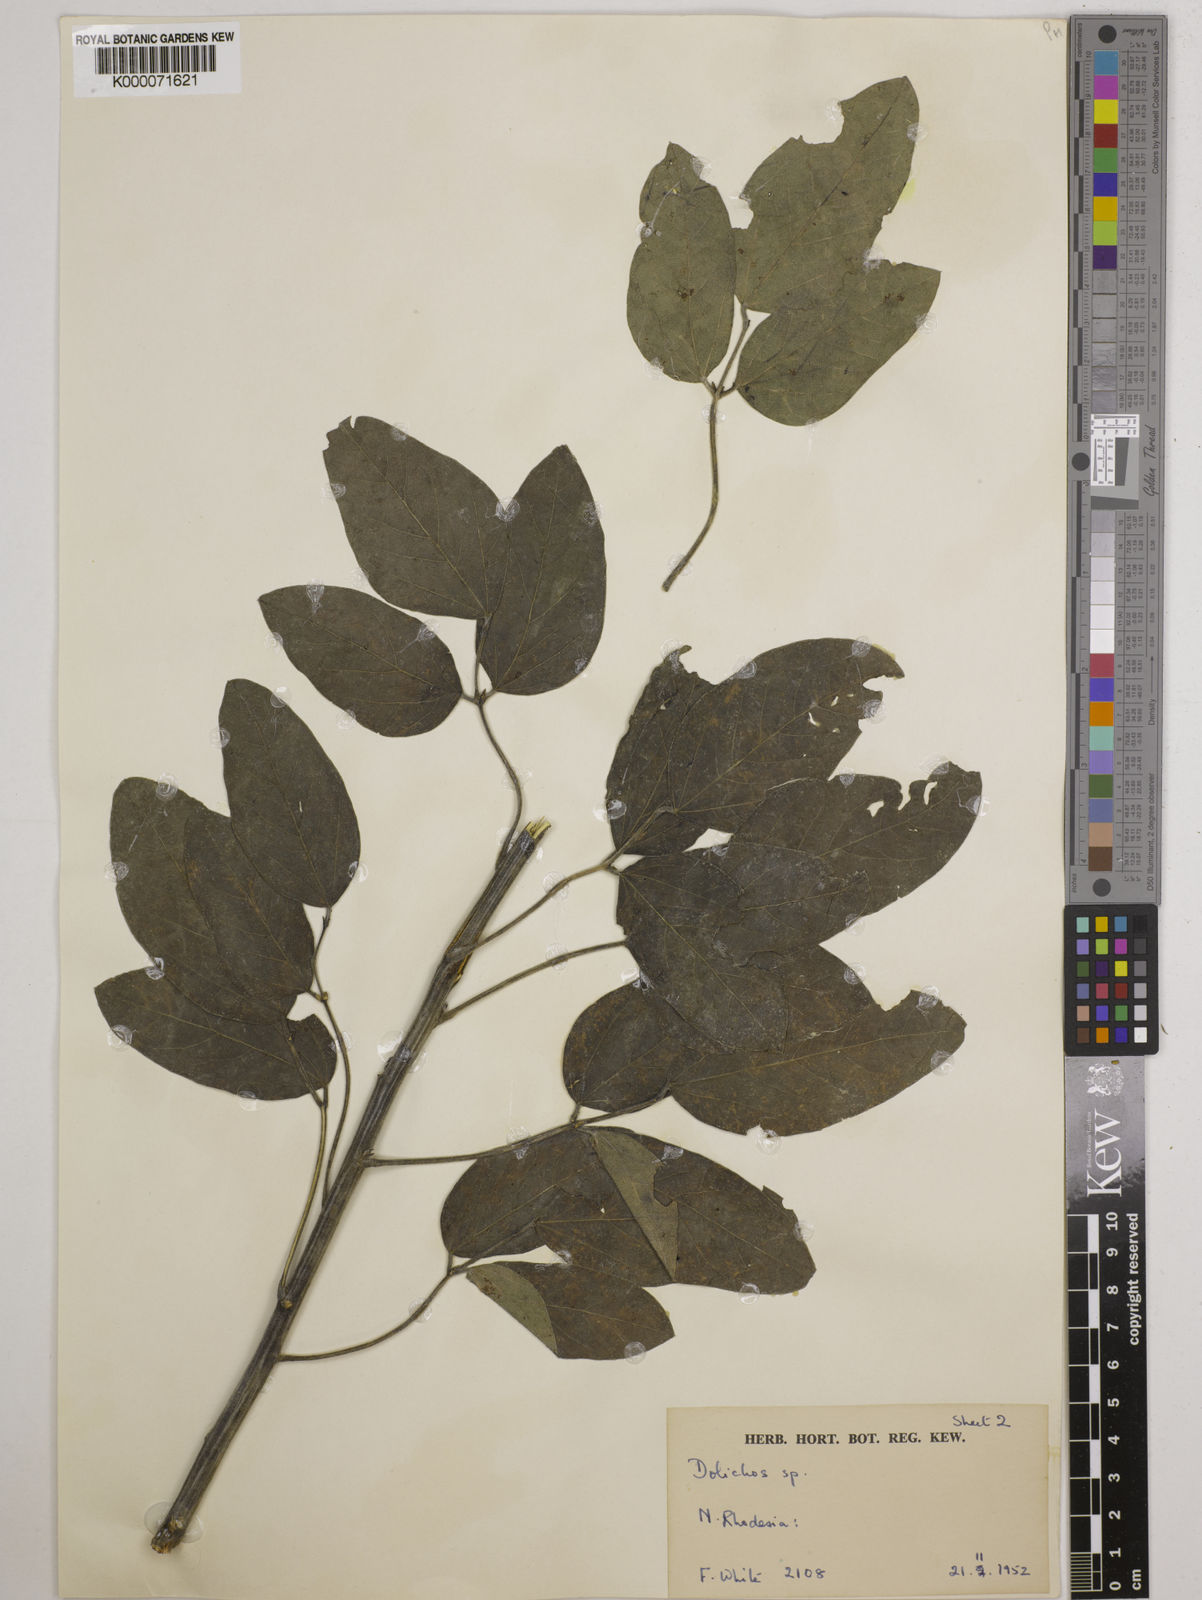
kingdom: Plantae
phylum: Tracheophyta
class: Magnoliopsida
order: Fabales
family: Fabaceae
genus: Dolichos
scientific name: Dolichos brevidentatus
